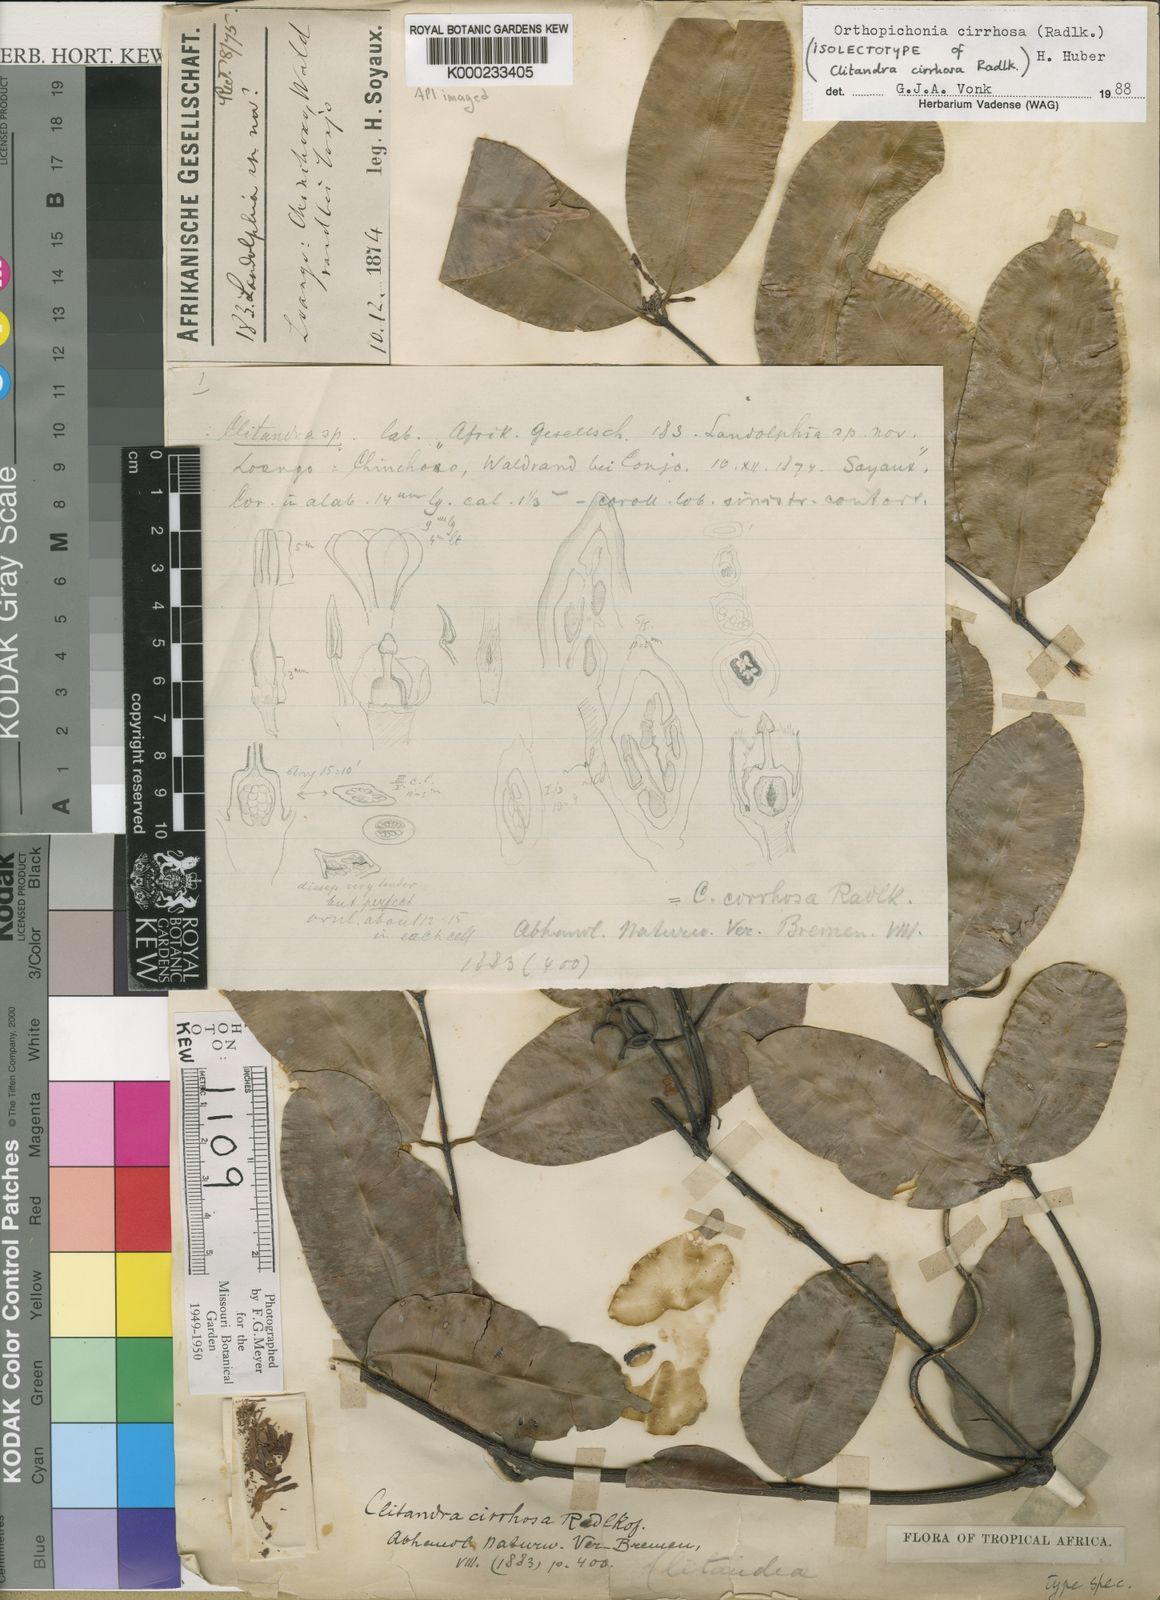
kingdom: Plantae
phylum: Tracheophyta
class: Magnoliopsida
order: Gentianales
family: Apocynaceae
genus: Orthopichonia
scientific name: Orthopichonia cirrhosa
